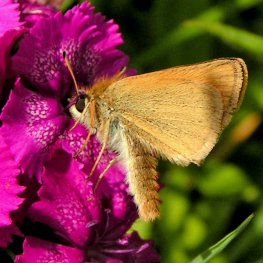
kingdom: Animalia
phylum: Arthropoda
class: Insecta
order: Lepidoptera
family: Hesperiidae
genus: Thymelicus
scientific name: Thymelicus lineola
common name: European Skipper
